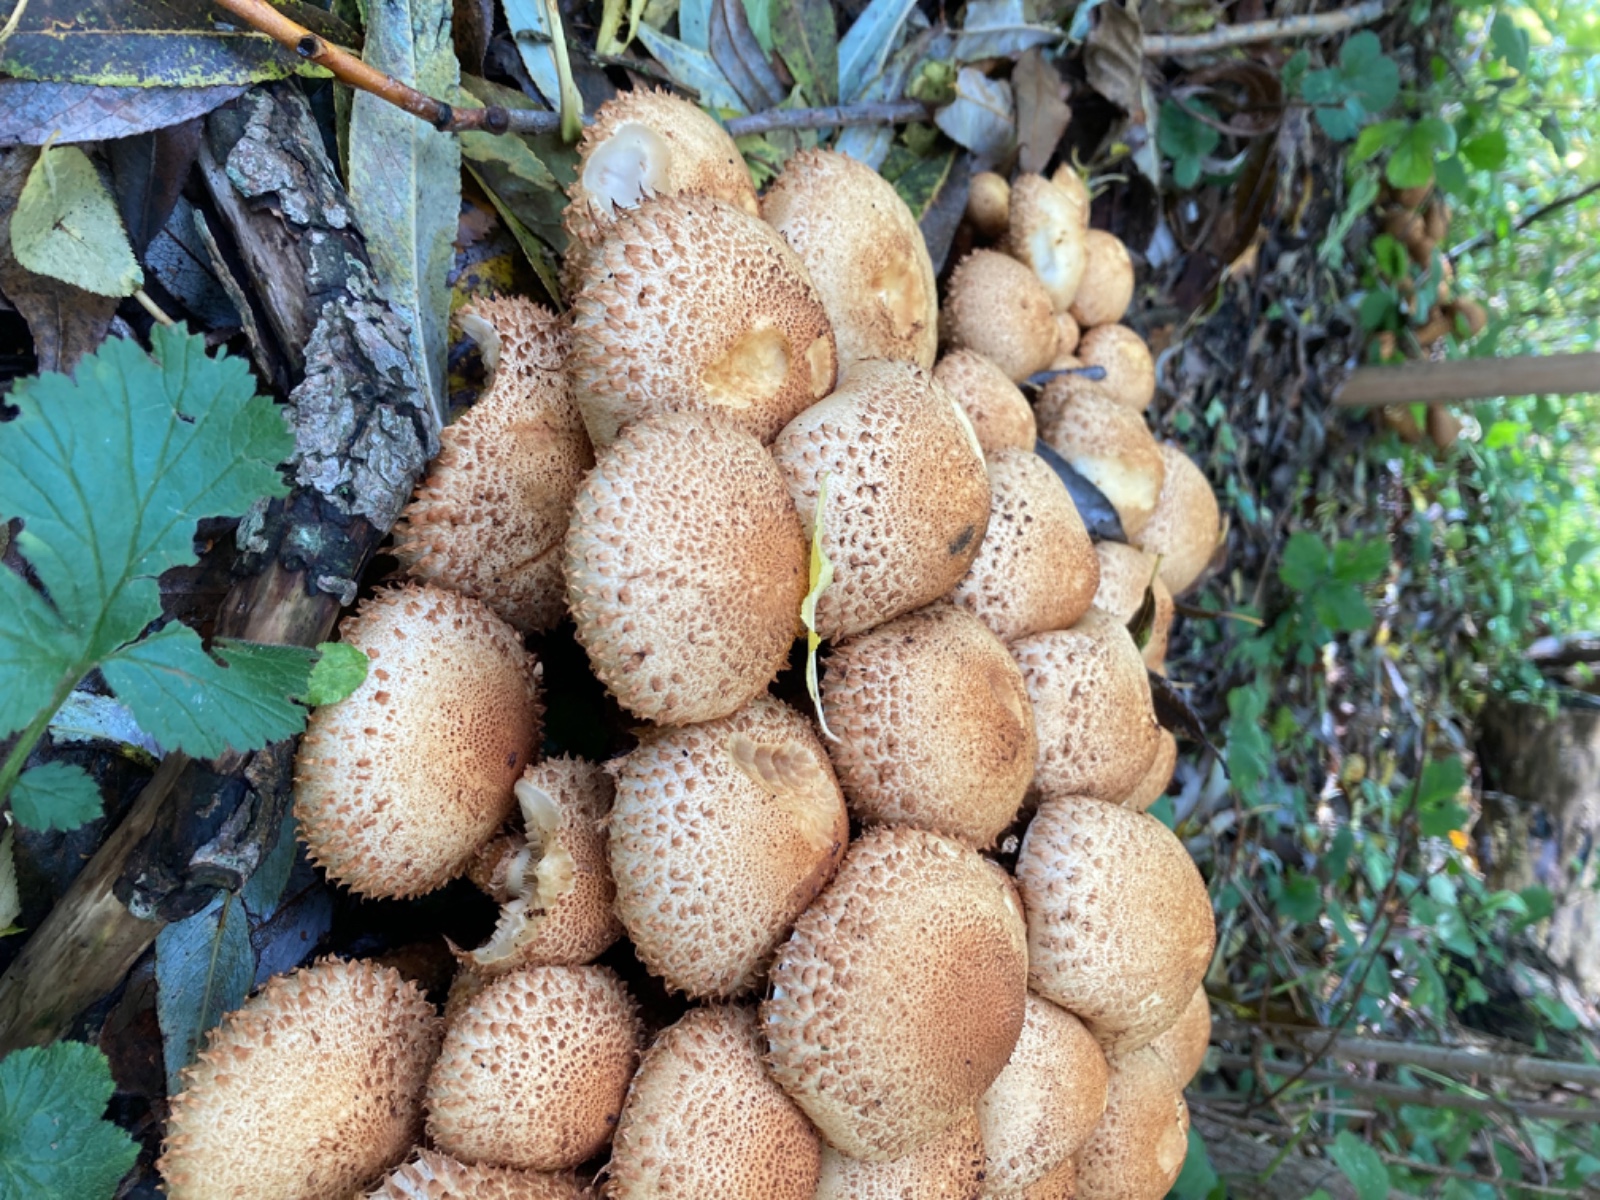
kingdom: Fungi
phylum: Basidiomycota
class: Agaricomycetes
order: Agaricales
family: Strophariaceae
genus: Pholiota
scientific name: Pholiota squarrosa
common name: krumskællet skælhat
